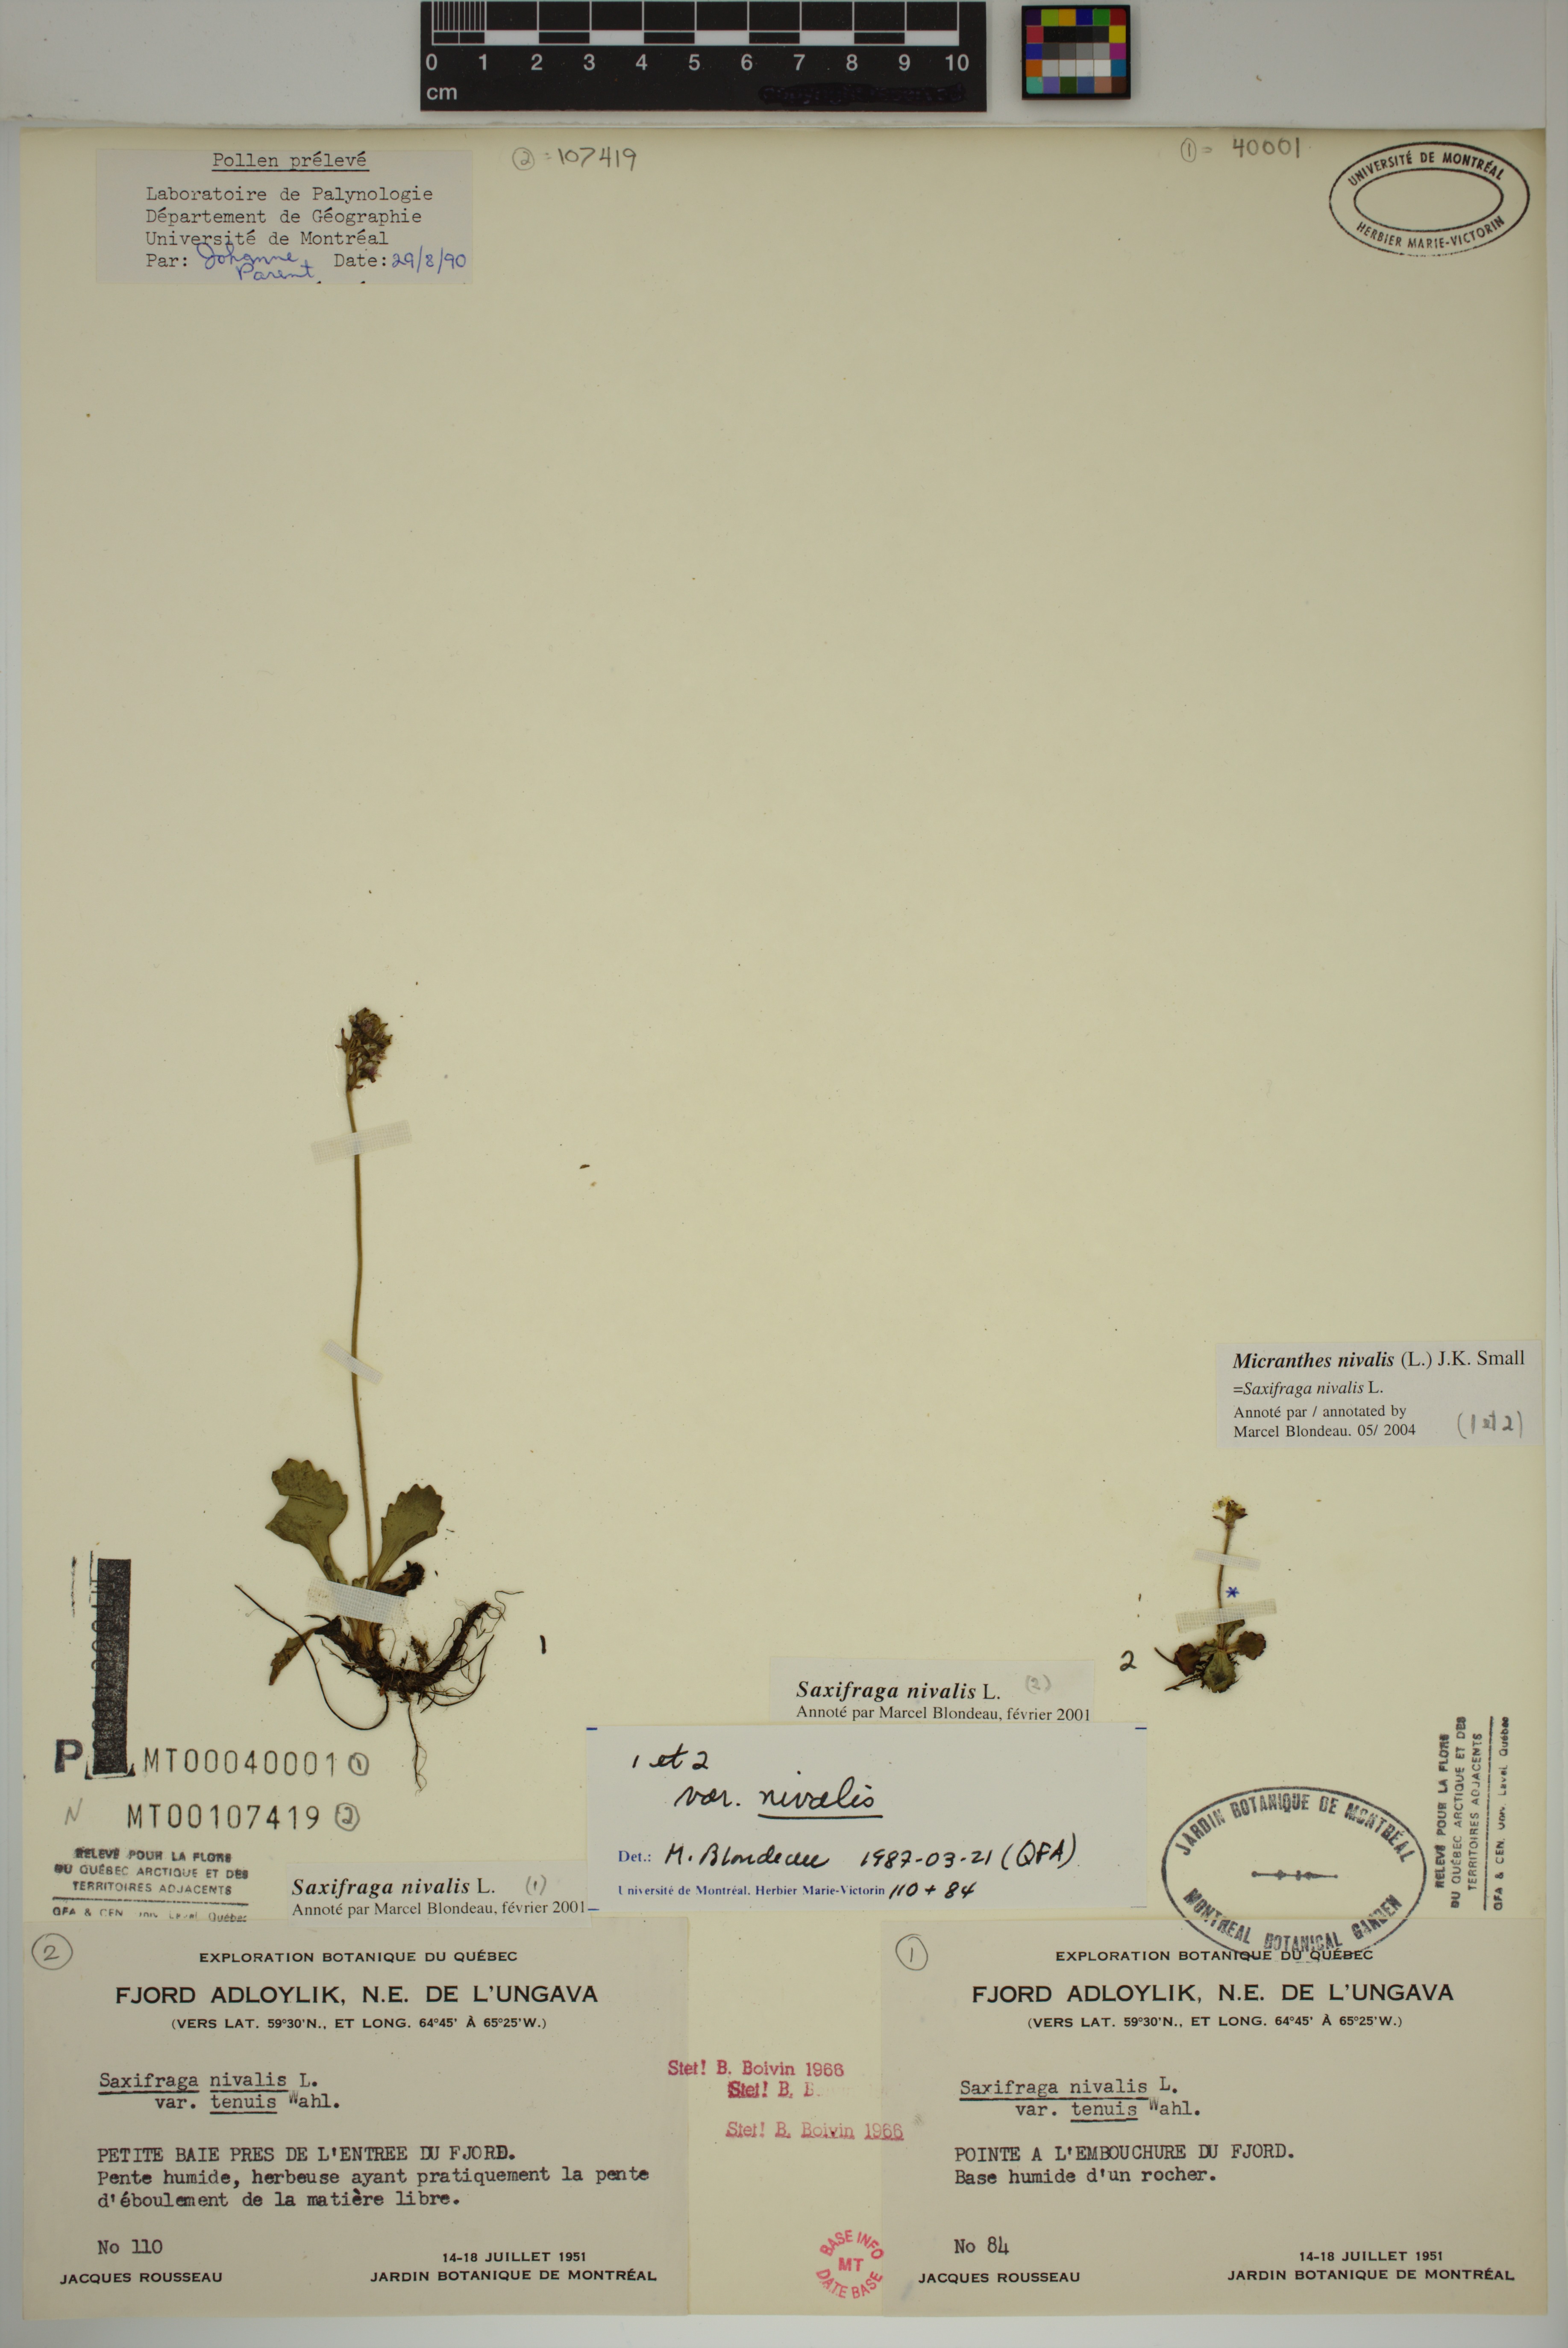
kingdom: Plantae
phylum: Tracheophyta
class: Magnoliopsida
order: Saxifragales
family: Saxifragaceae
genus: Micranthes
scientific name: Micranthes nivalis
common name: Alpine saxifrage
